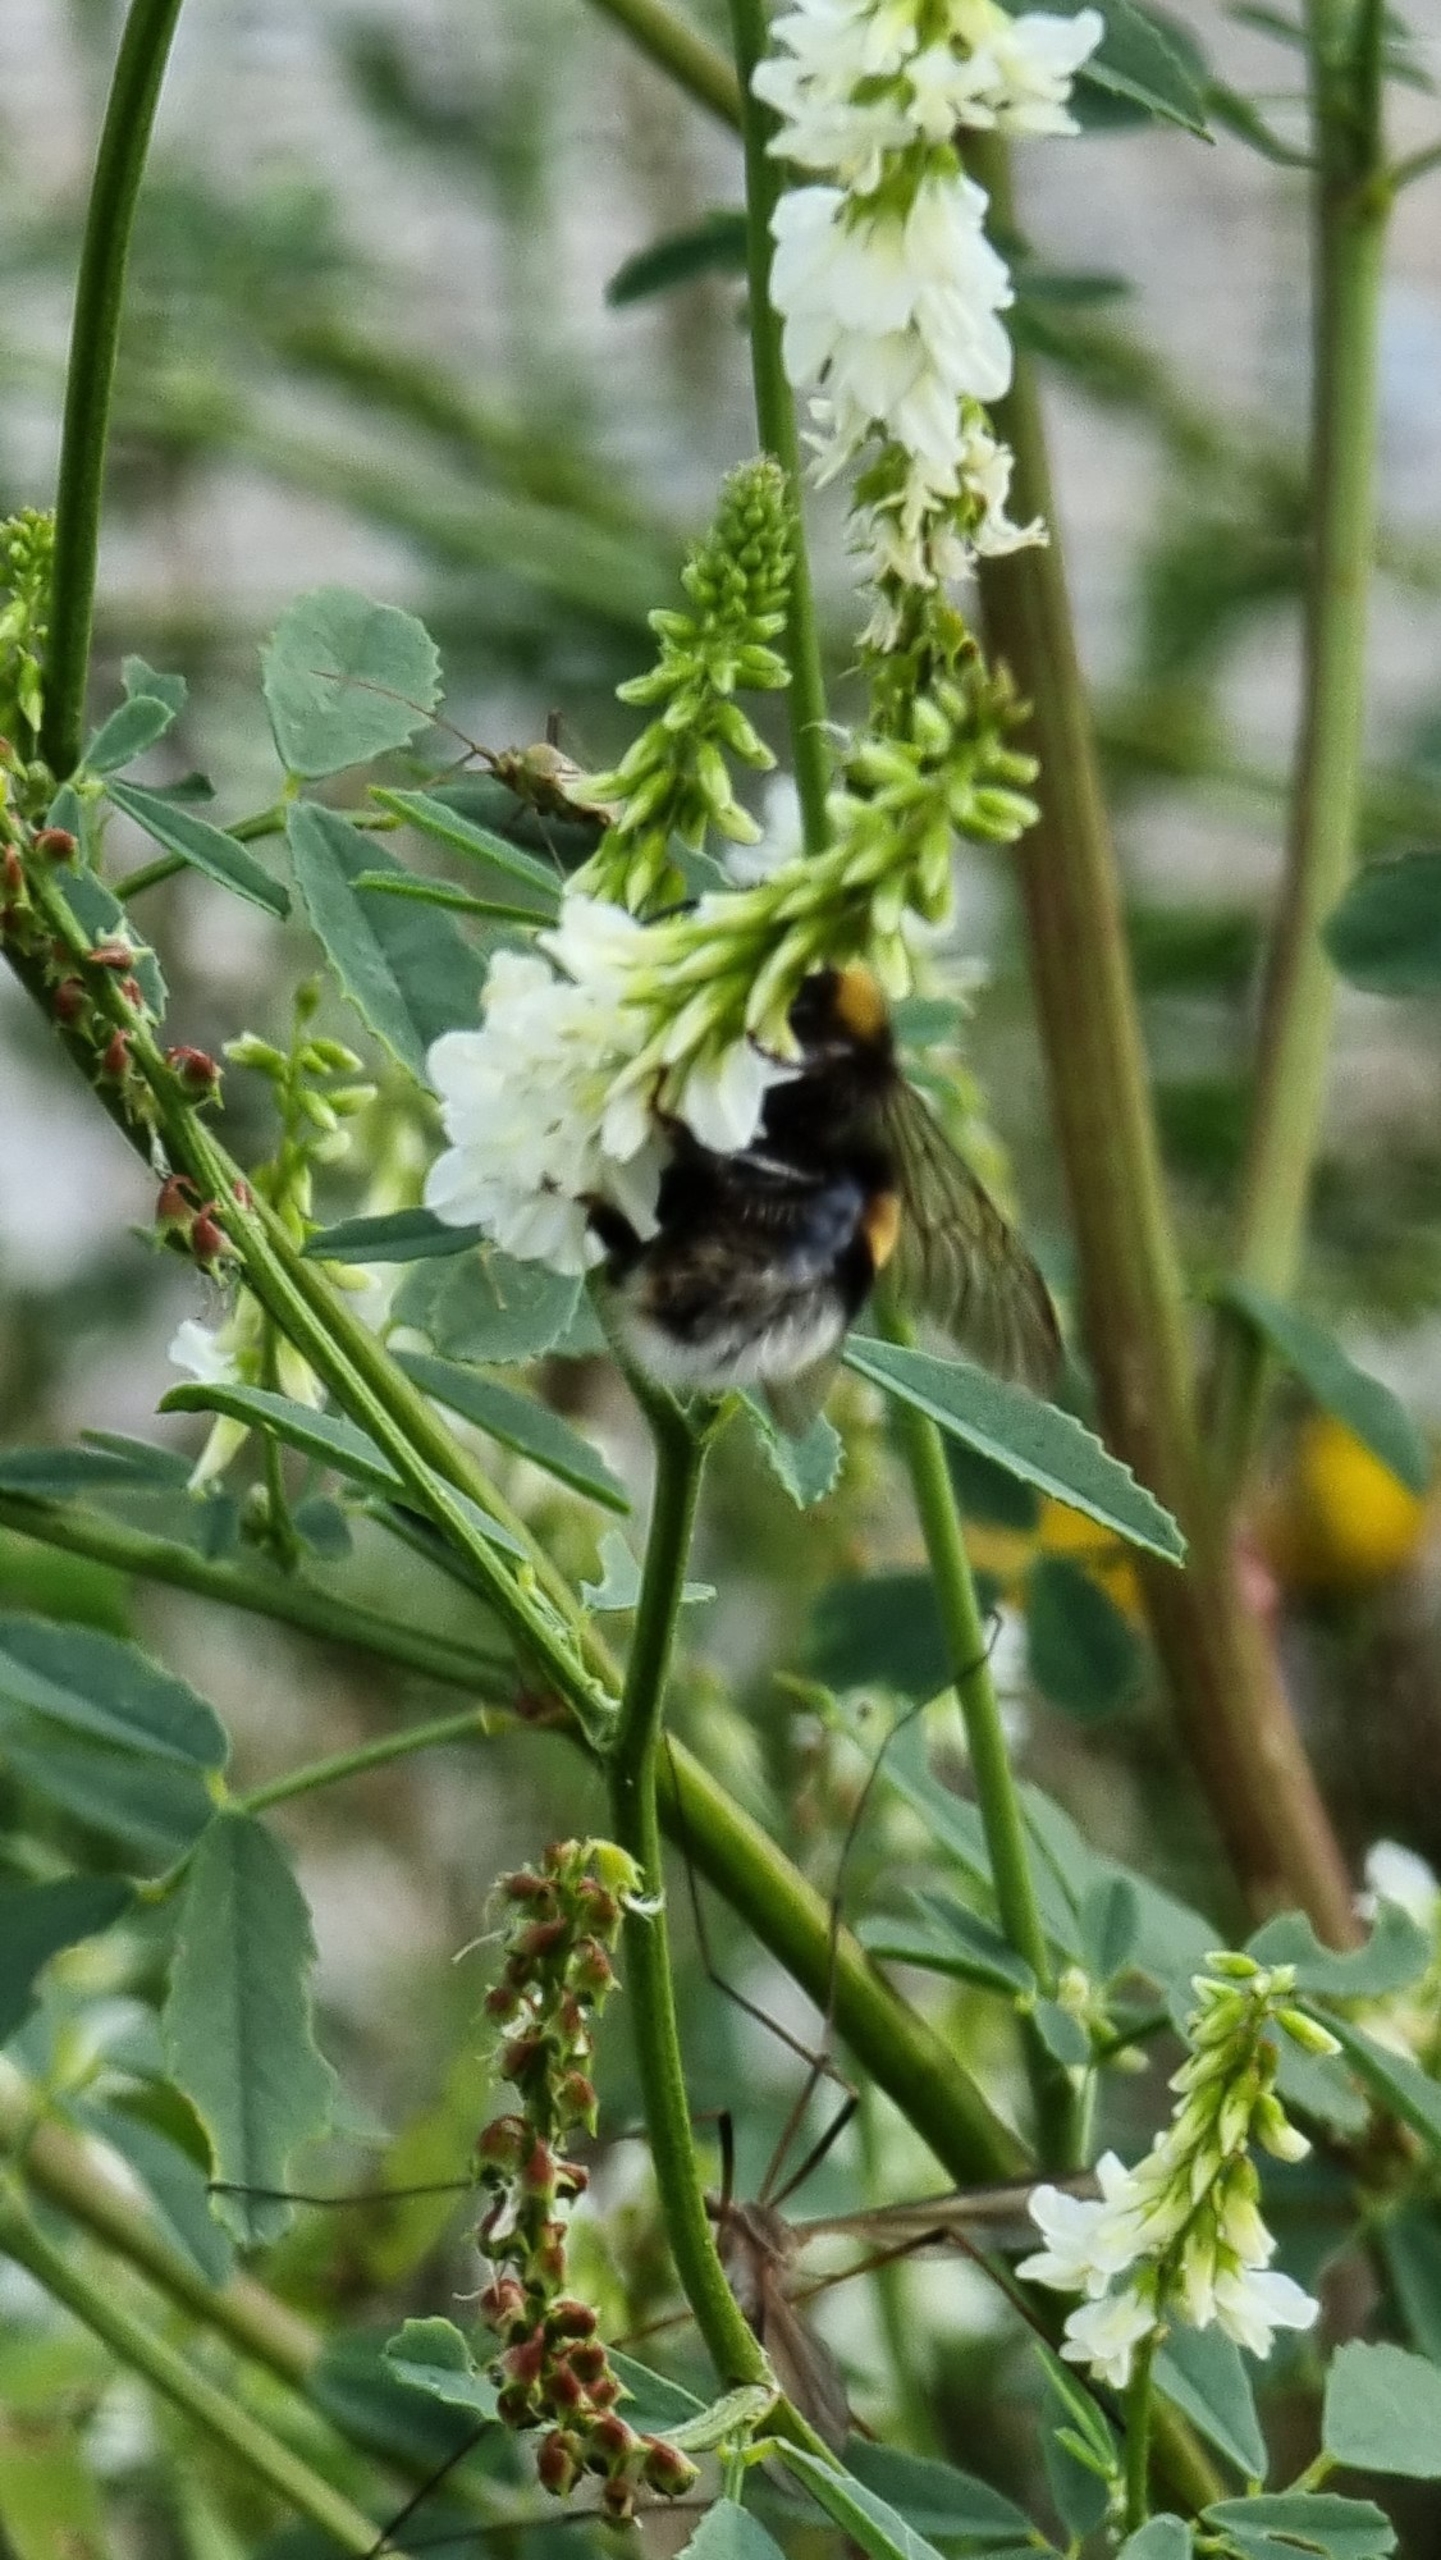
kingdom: Plantae
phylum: Tracheophyta
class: Magnoliopsida
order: Fabales
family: Fabaceae
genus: Melilotus
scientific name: Melilotus albus
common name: Hvid stenkløver
